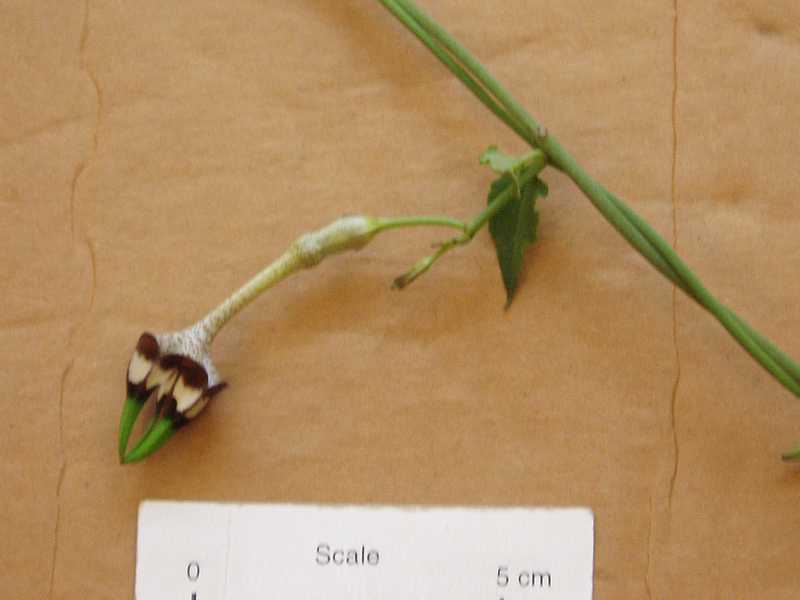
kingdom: Plantae
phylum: Tracheophyta
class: Magnoliopsida
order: Gentianales
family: Apocynaceae
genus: Ceropegia
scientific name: Ceropegia radicans
